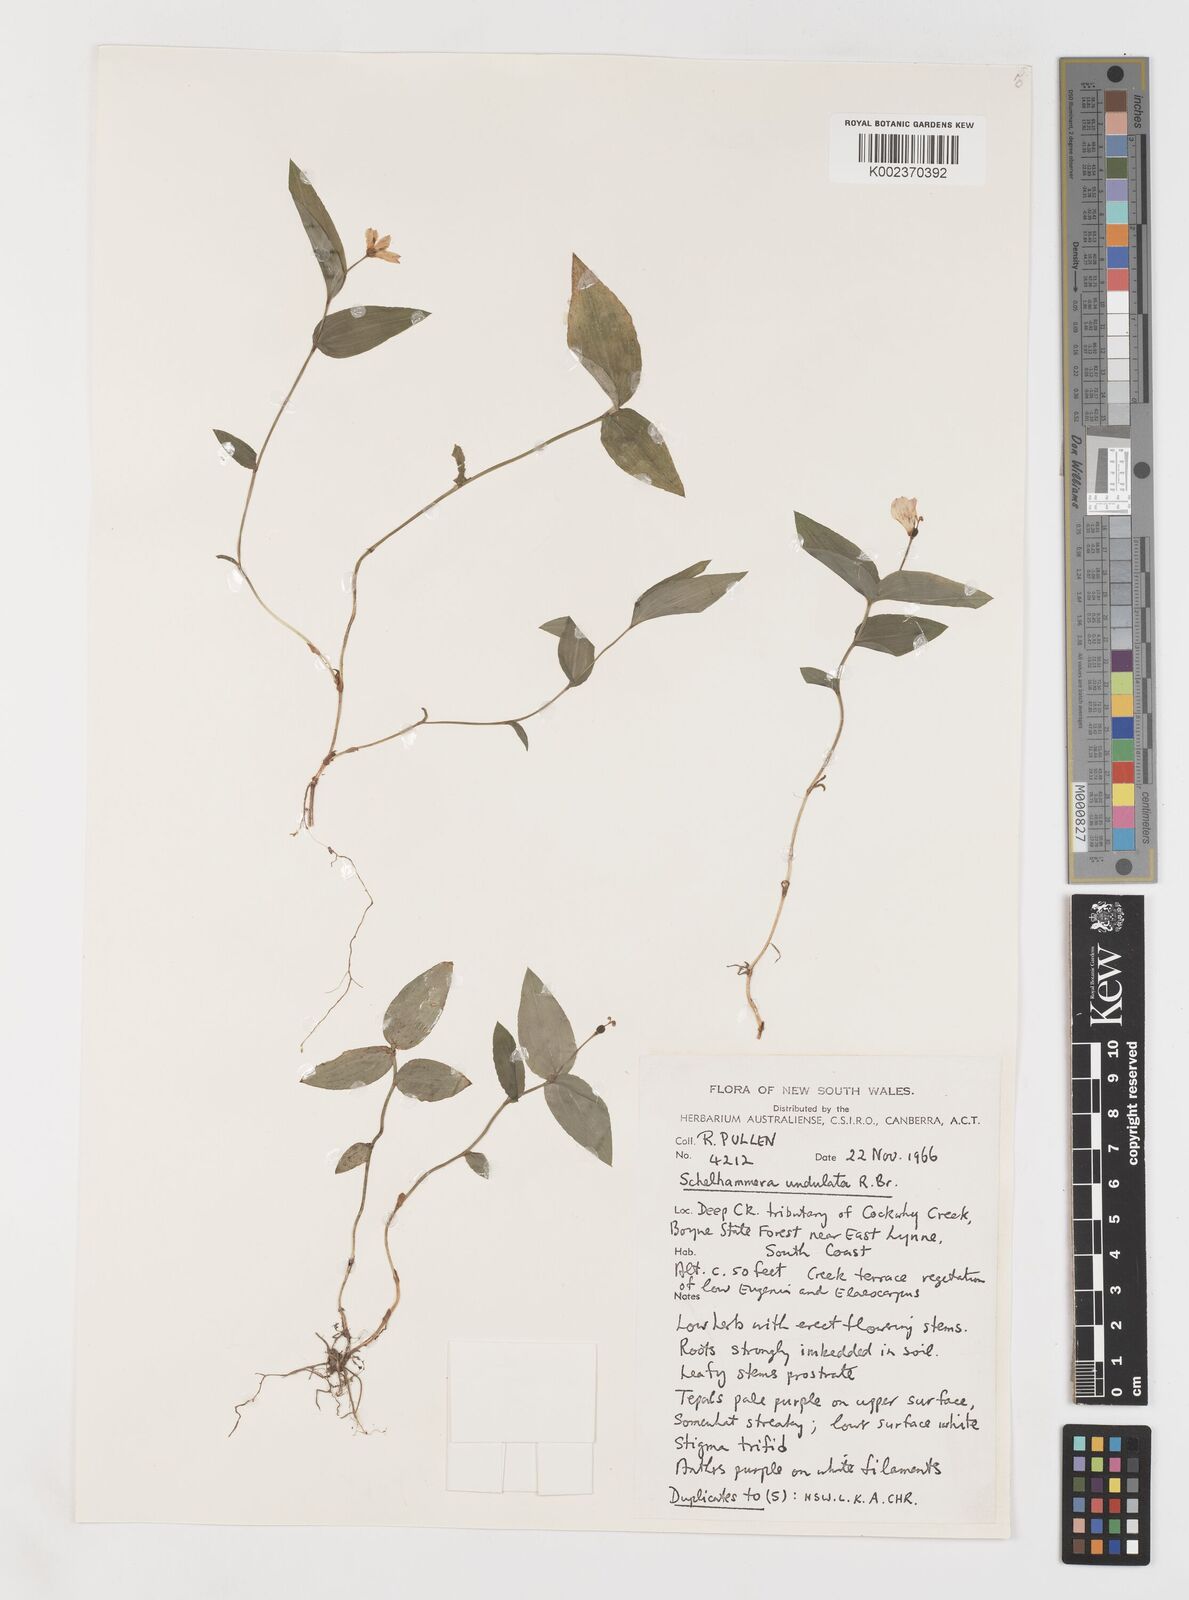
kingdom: Plantae
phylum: Tracheophyta
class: Liliopsida
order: Liliales
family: Colchicaceae
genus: Schelhammera
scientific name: Schelhammera undulata
